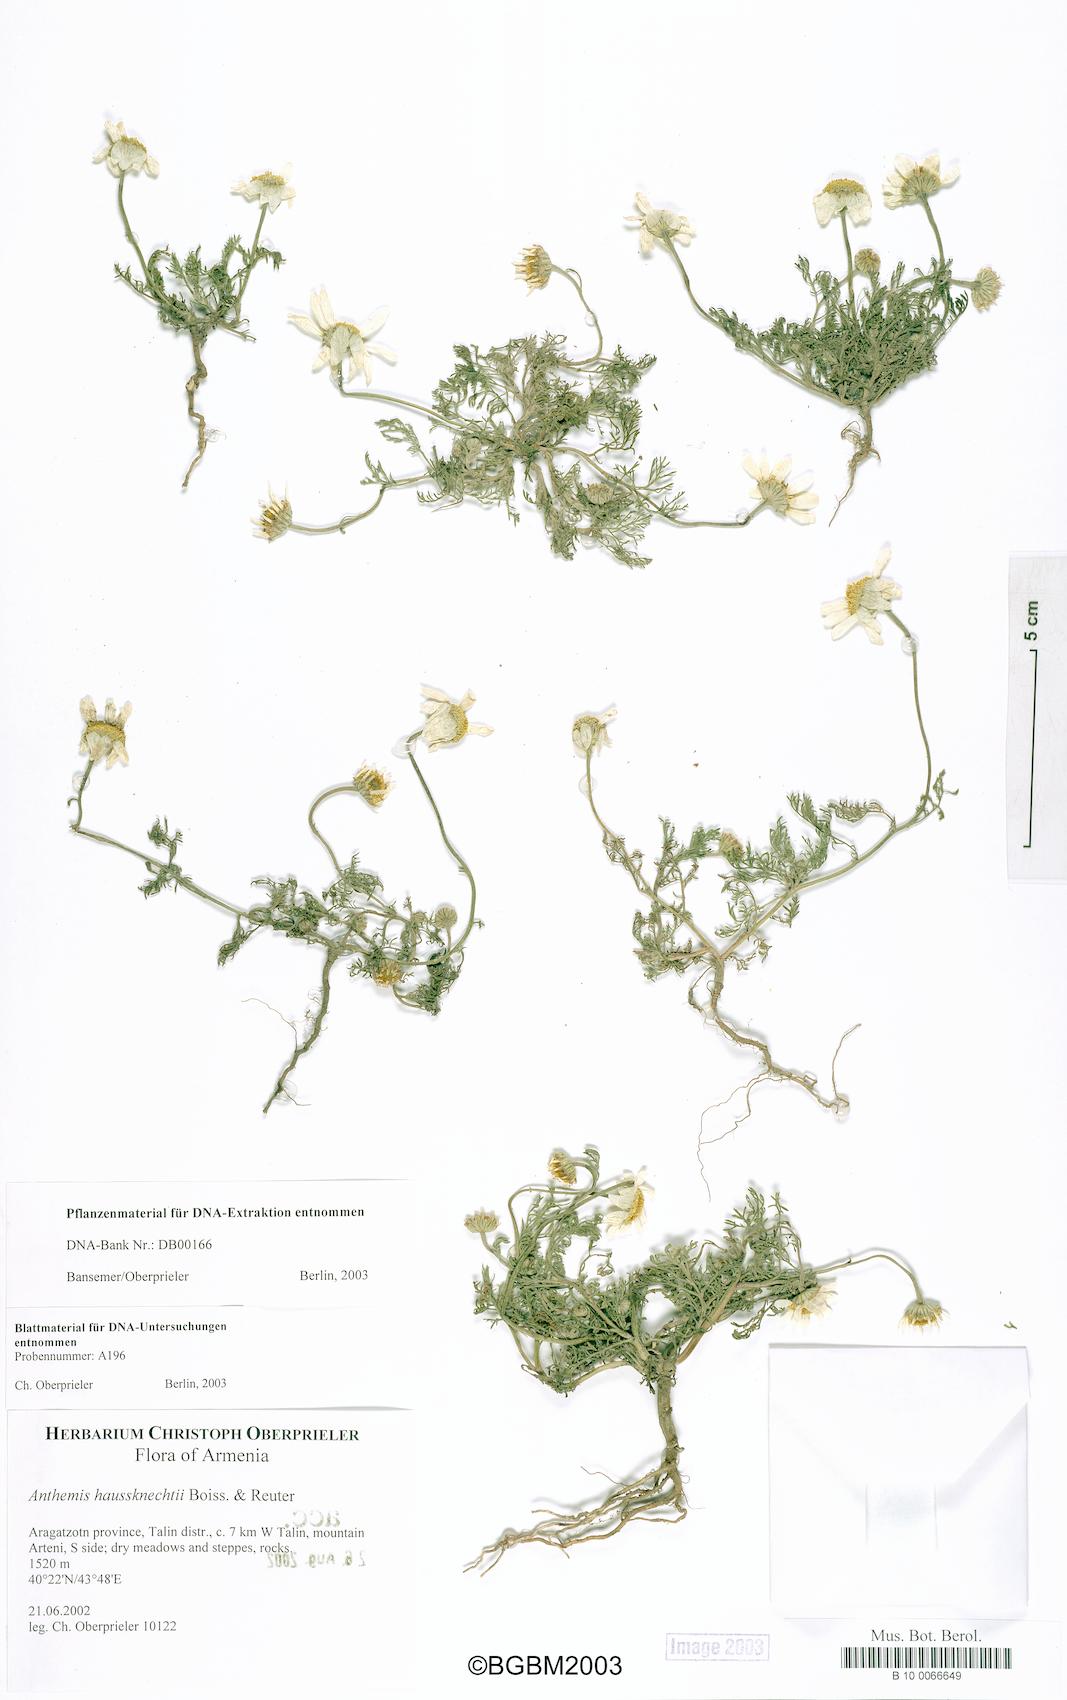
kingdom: Plantae
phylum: Tracheophyta
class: Magnoliopsida
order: Asterales
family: Asteraceae
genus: Anthemis
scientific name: Anthemis haussknechtii
